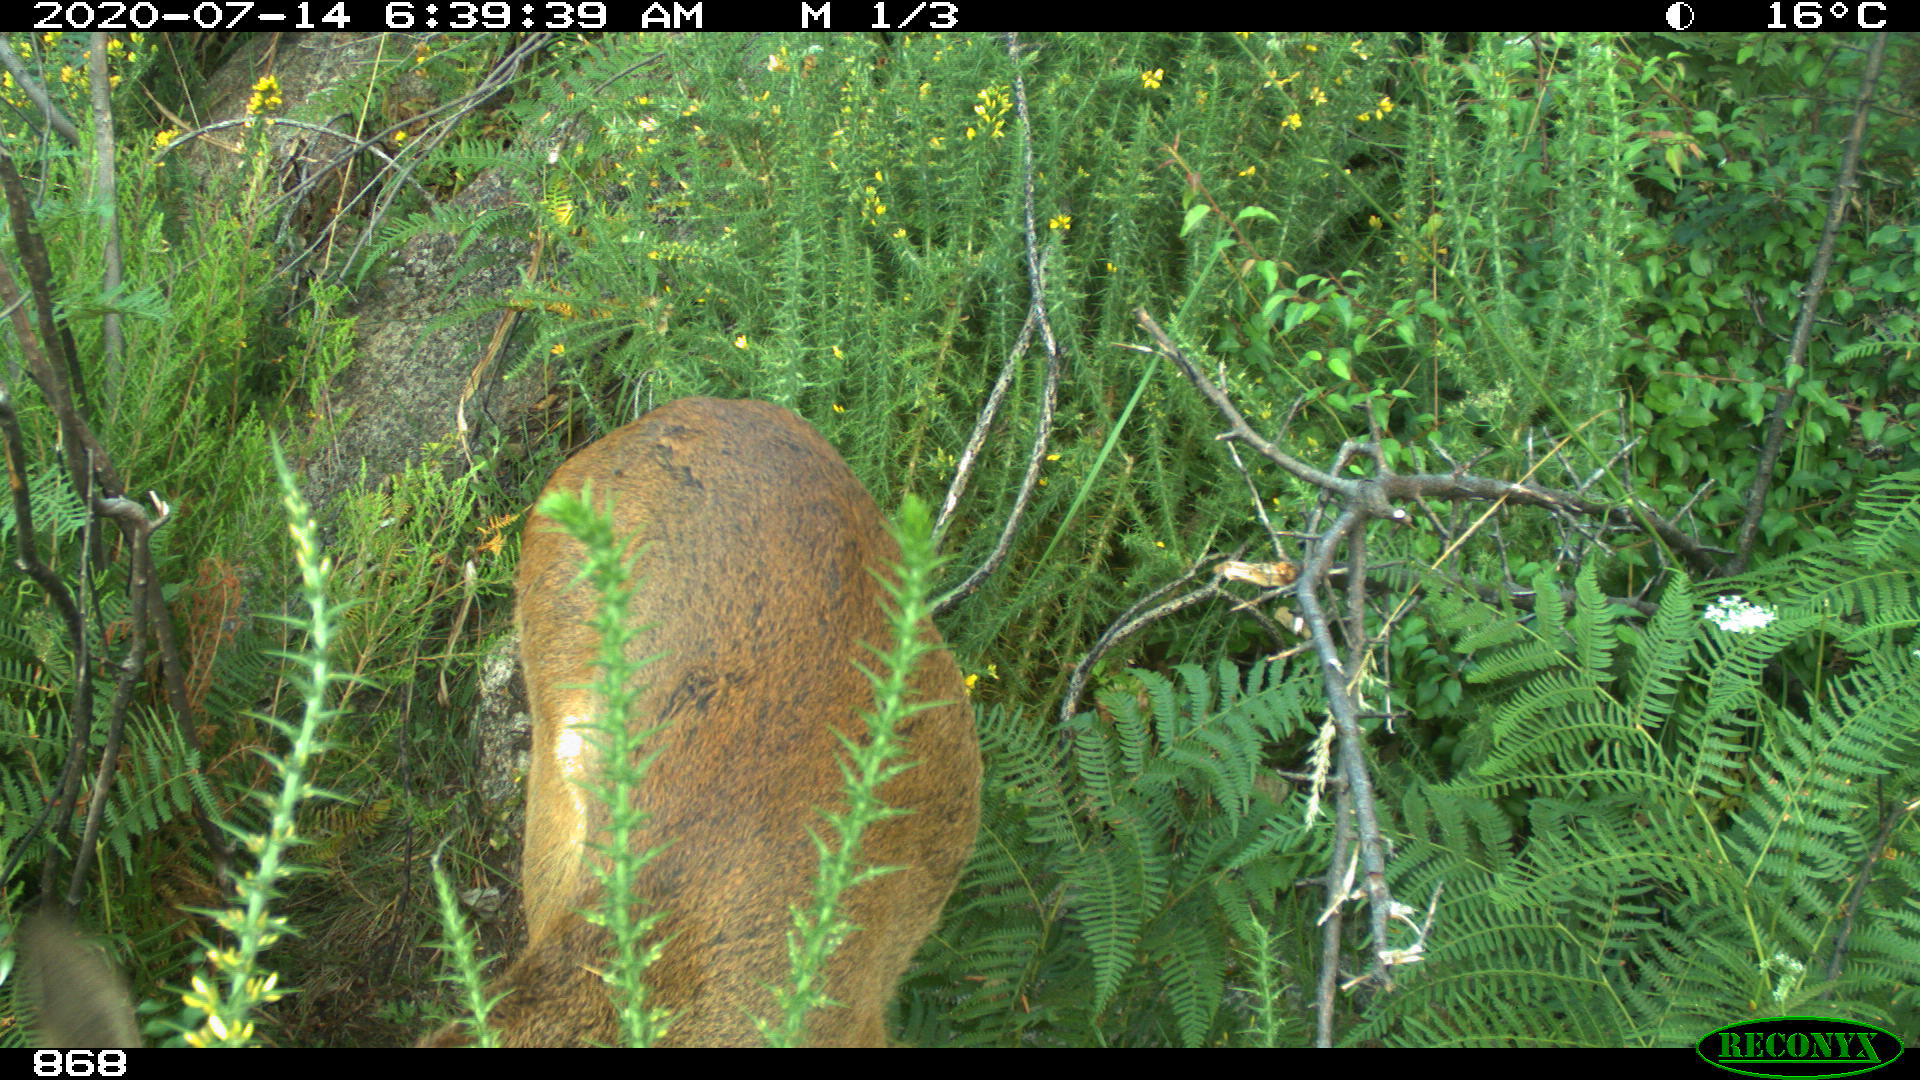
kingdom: Animalia
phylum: Chordata
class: Mammalia
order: Artiodactyla
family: Cervidae
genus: Capreolus
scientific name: Capreolus capreolus
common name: Western roe deer
